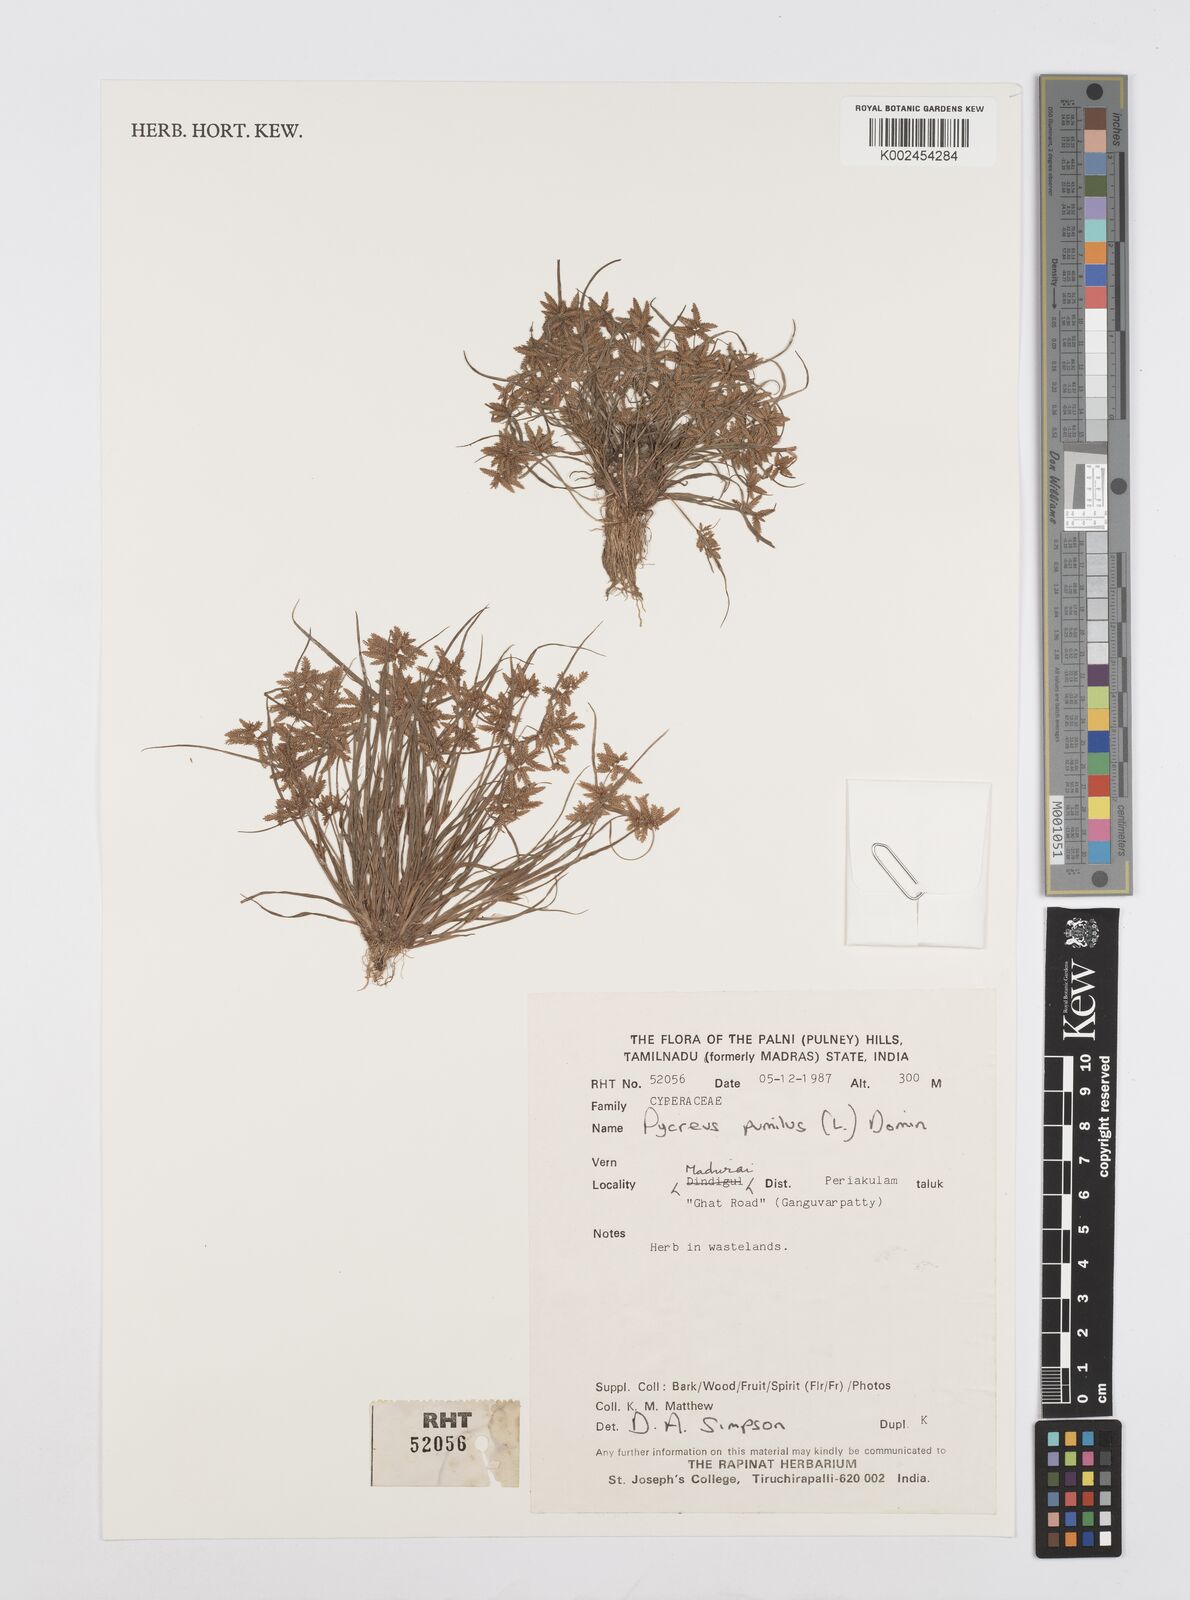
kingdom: Plantae
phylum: Tracheophyta
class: Liliopsida
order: Poales
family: Cyperaceae
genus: Cyperus
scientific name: Cyperus pumilus
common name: Low flatsedge
